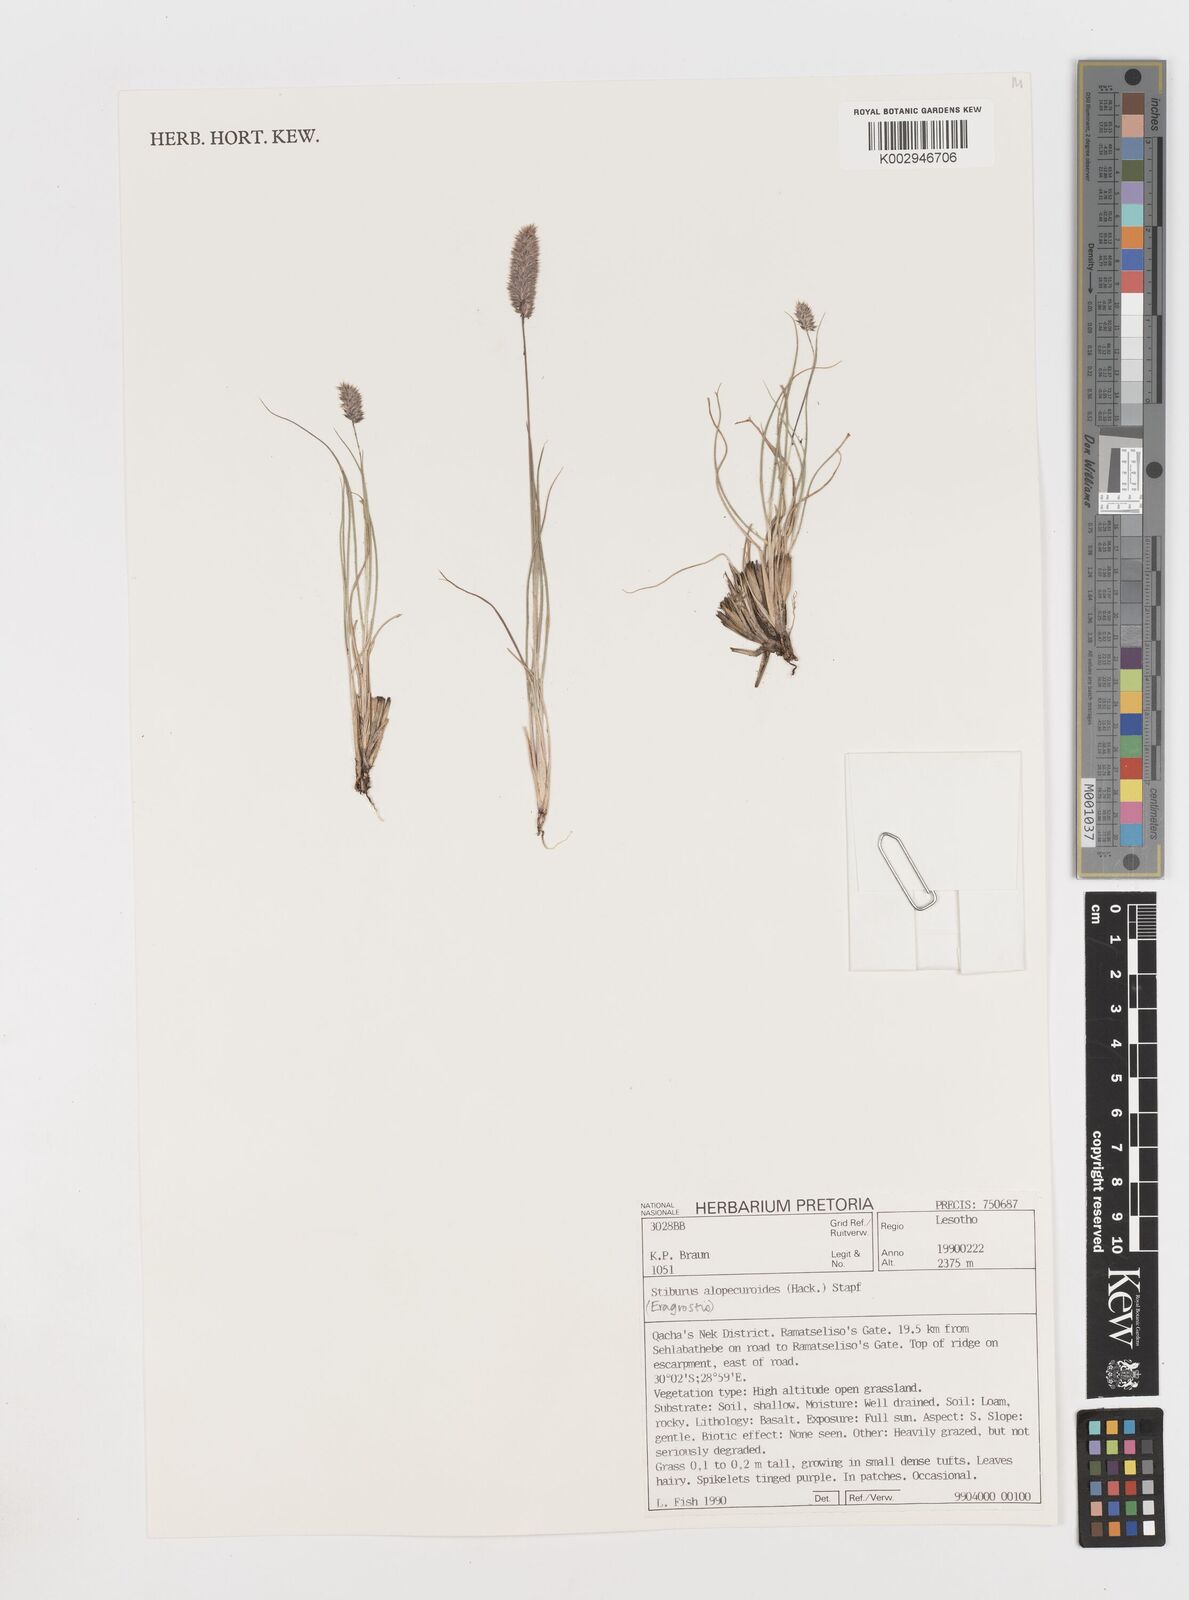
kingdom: Plantae
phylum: Tracheophyta
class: Liliopsida
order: Poales
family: Poaceae
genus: Stiburus
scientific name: Stiburus alopecuroides
